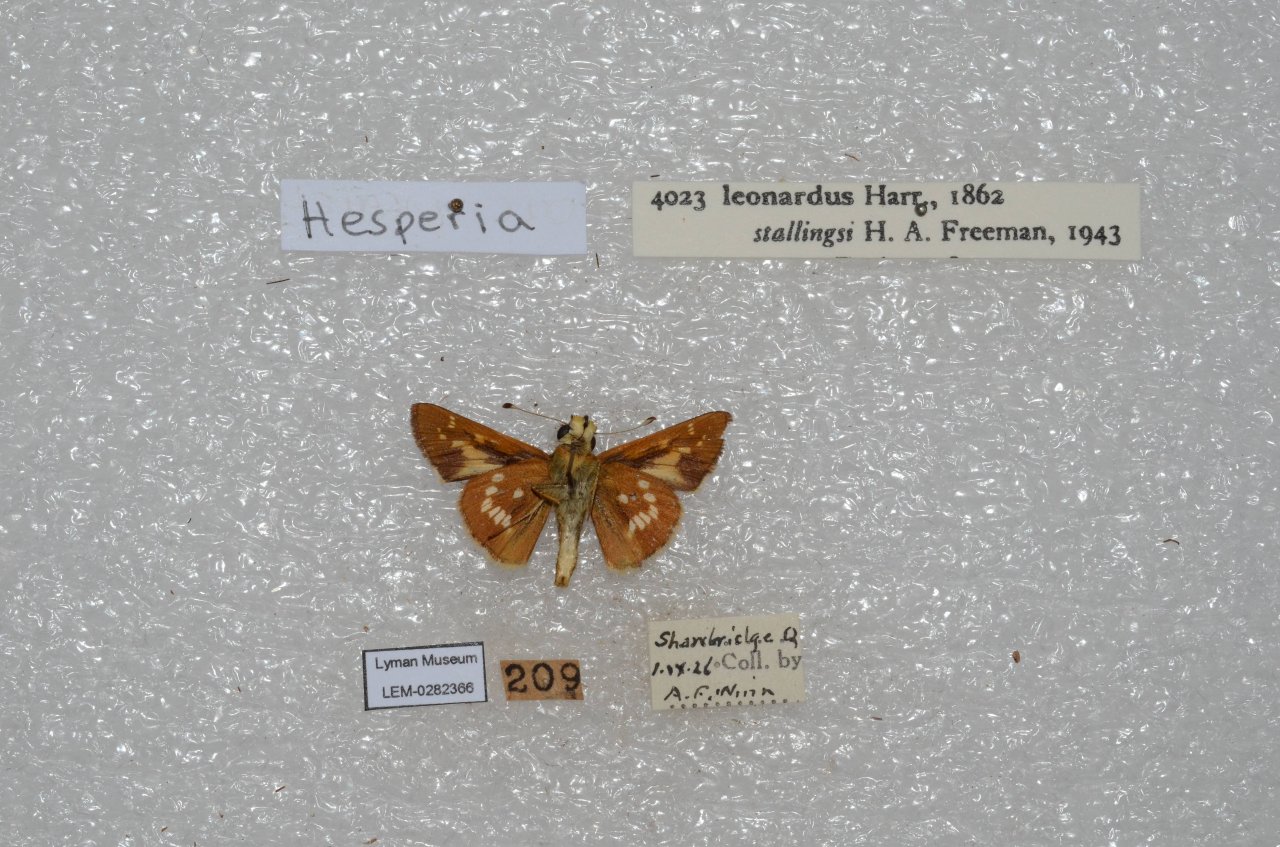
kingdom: Animalia
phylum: Arthropoda
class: Insecta
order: Lepidoptera
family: Hesperiidae
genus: Hesperia
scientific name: Hesperia leonardus
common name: Leonard's Skipper
